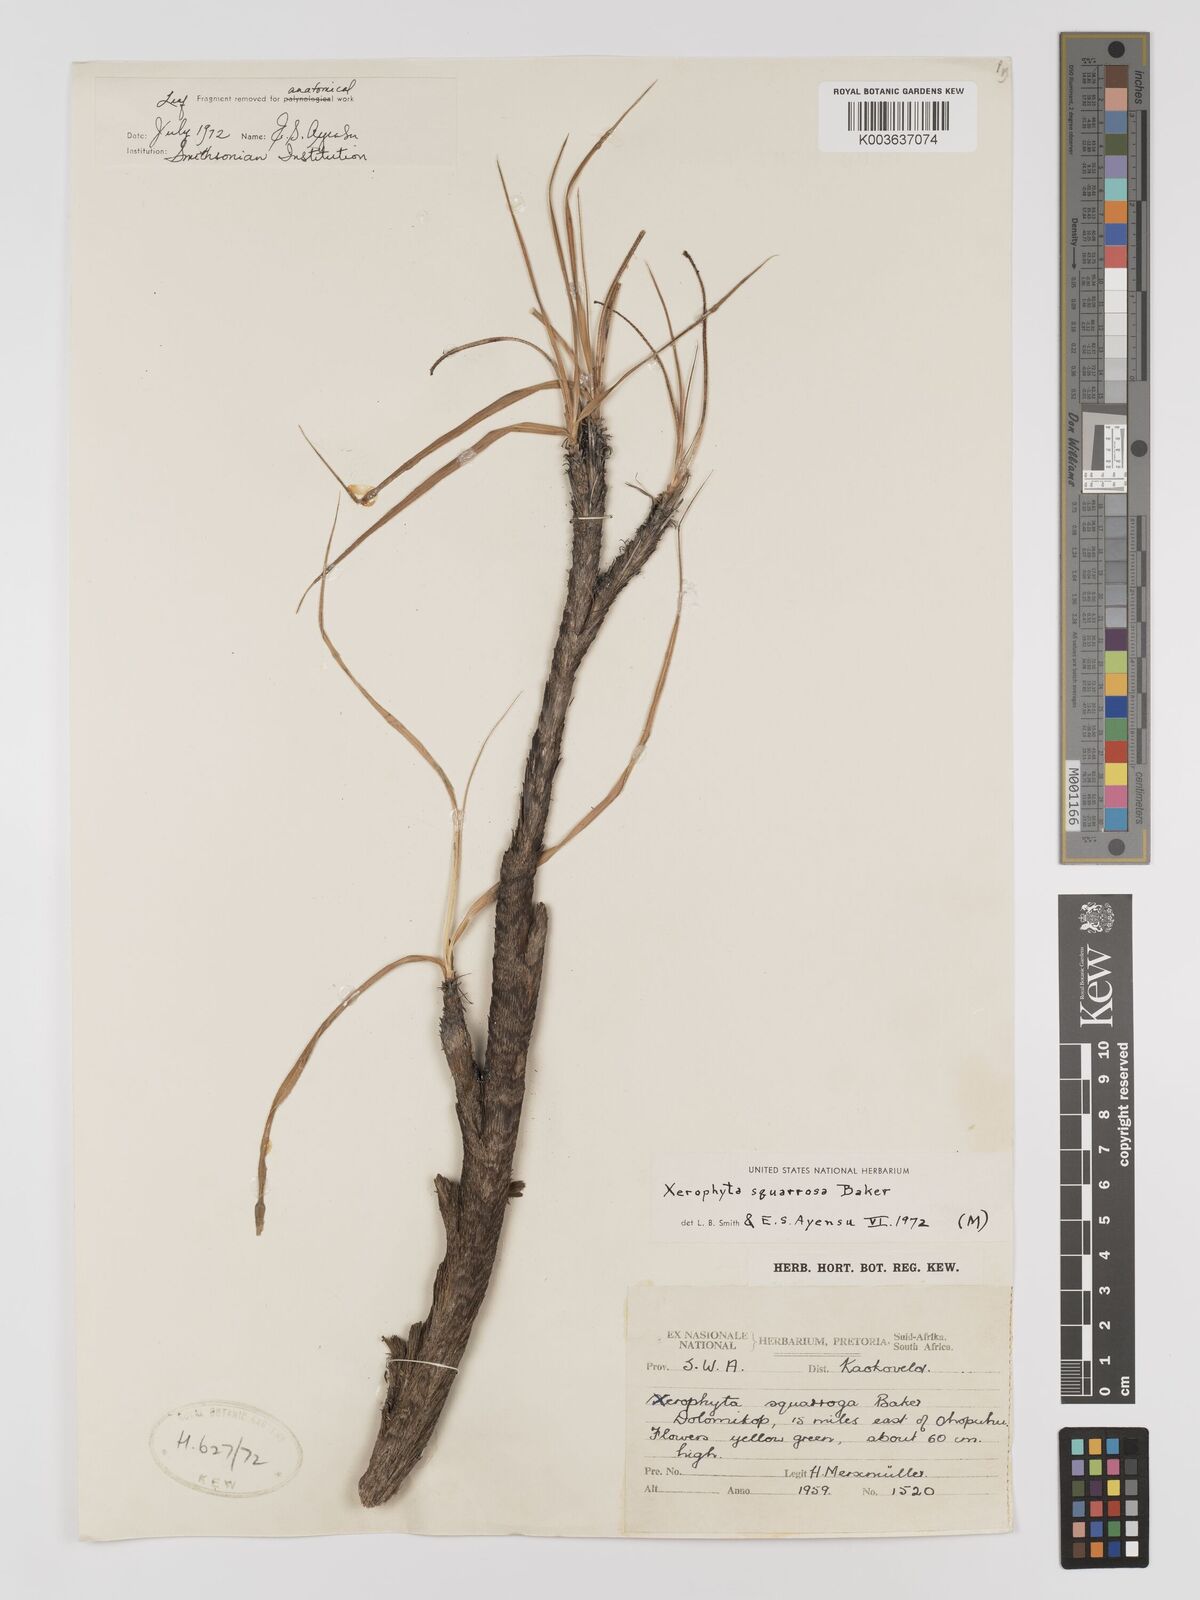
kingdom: Plantae
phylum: Tracheophyta
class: Liliopsida
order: Pandanales
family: Velloziaceae
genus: Xerophyta
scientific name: Xerophyta squarrosa
